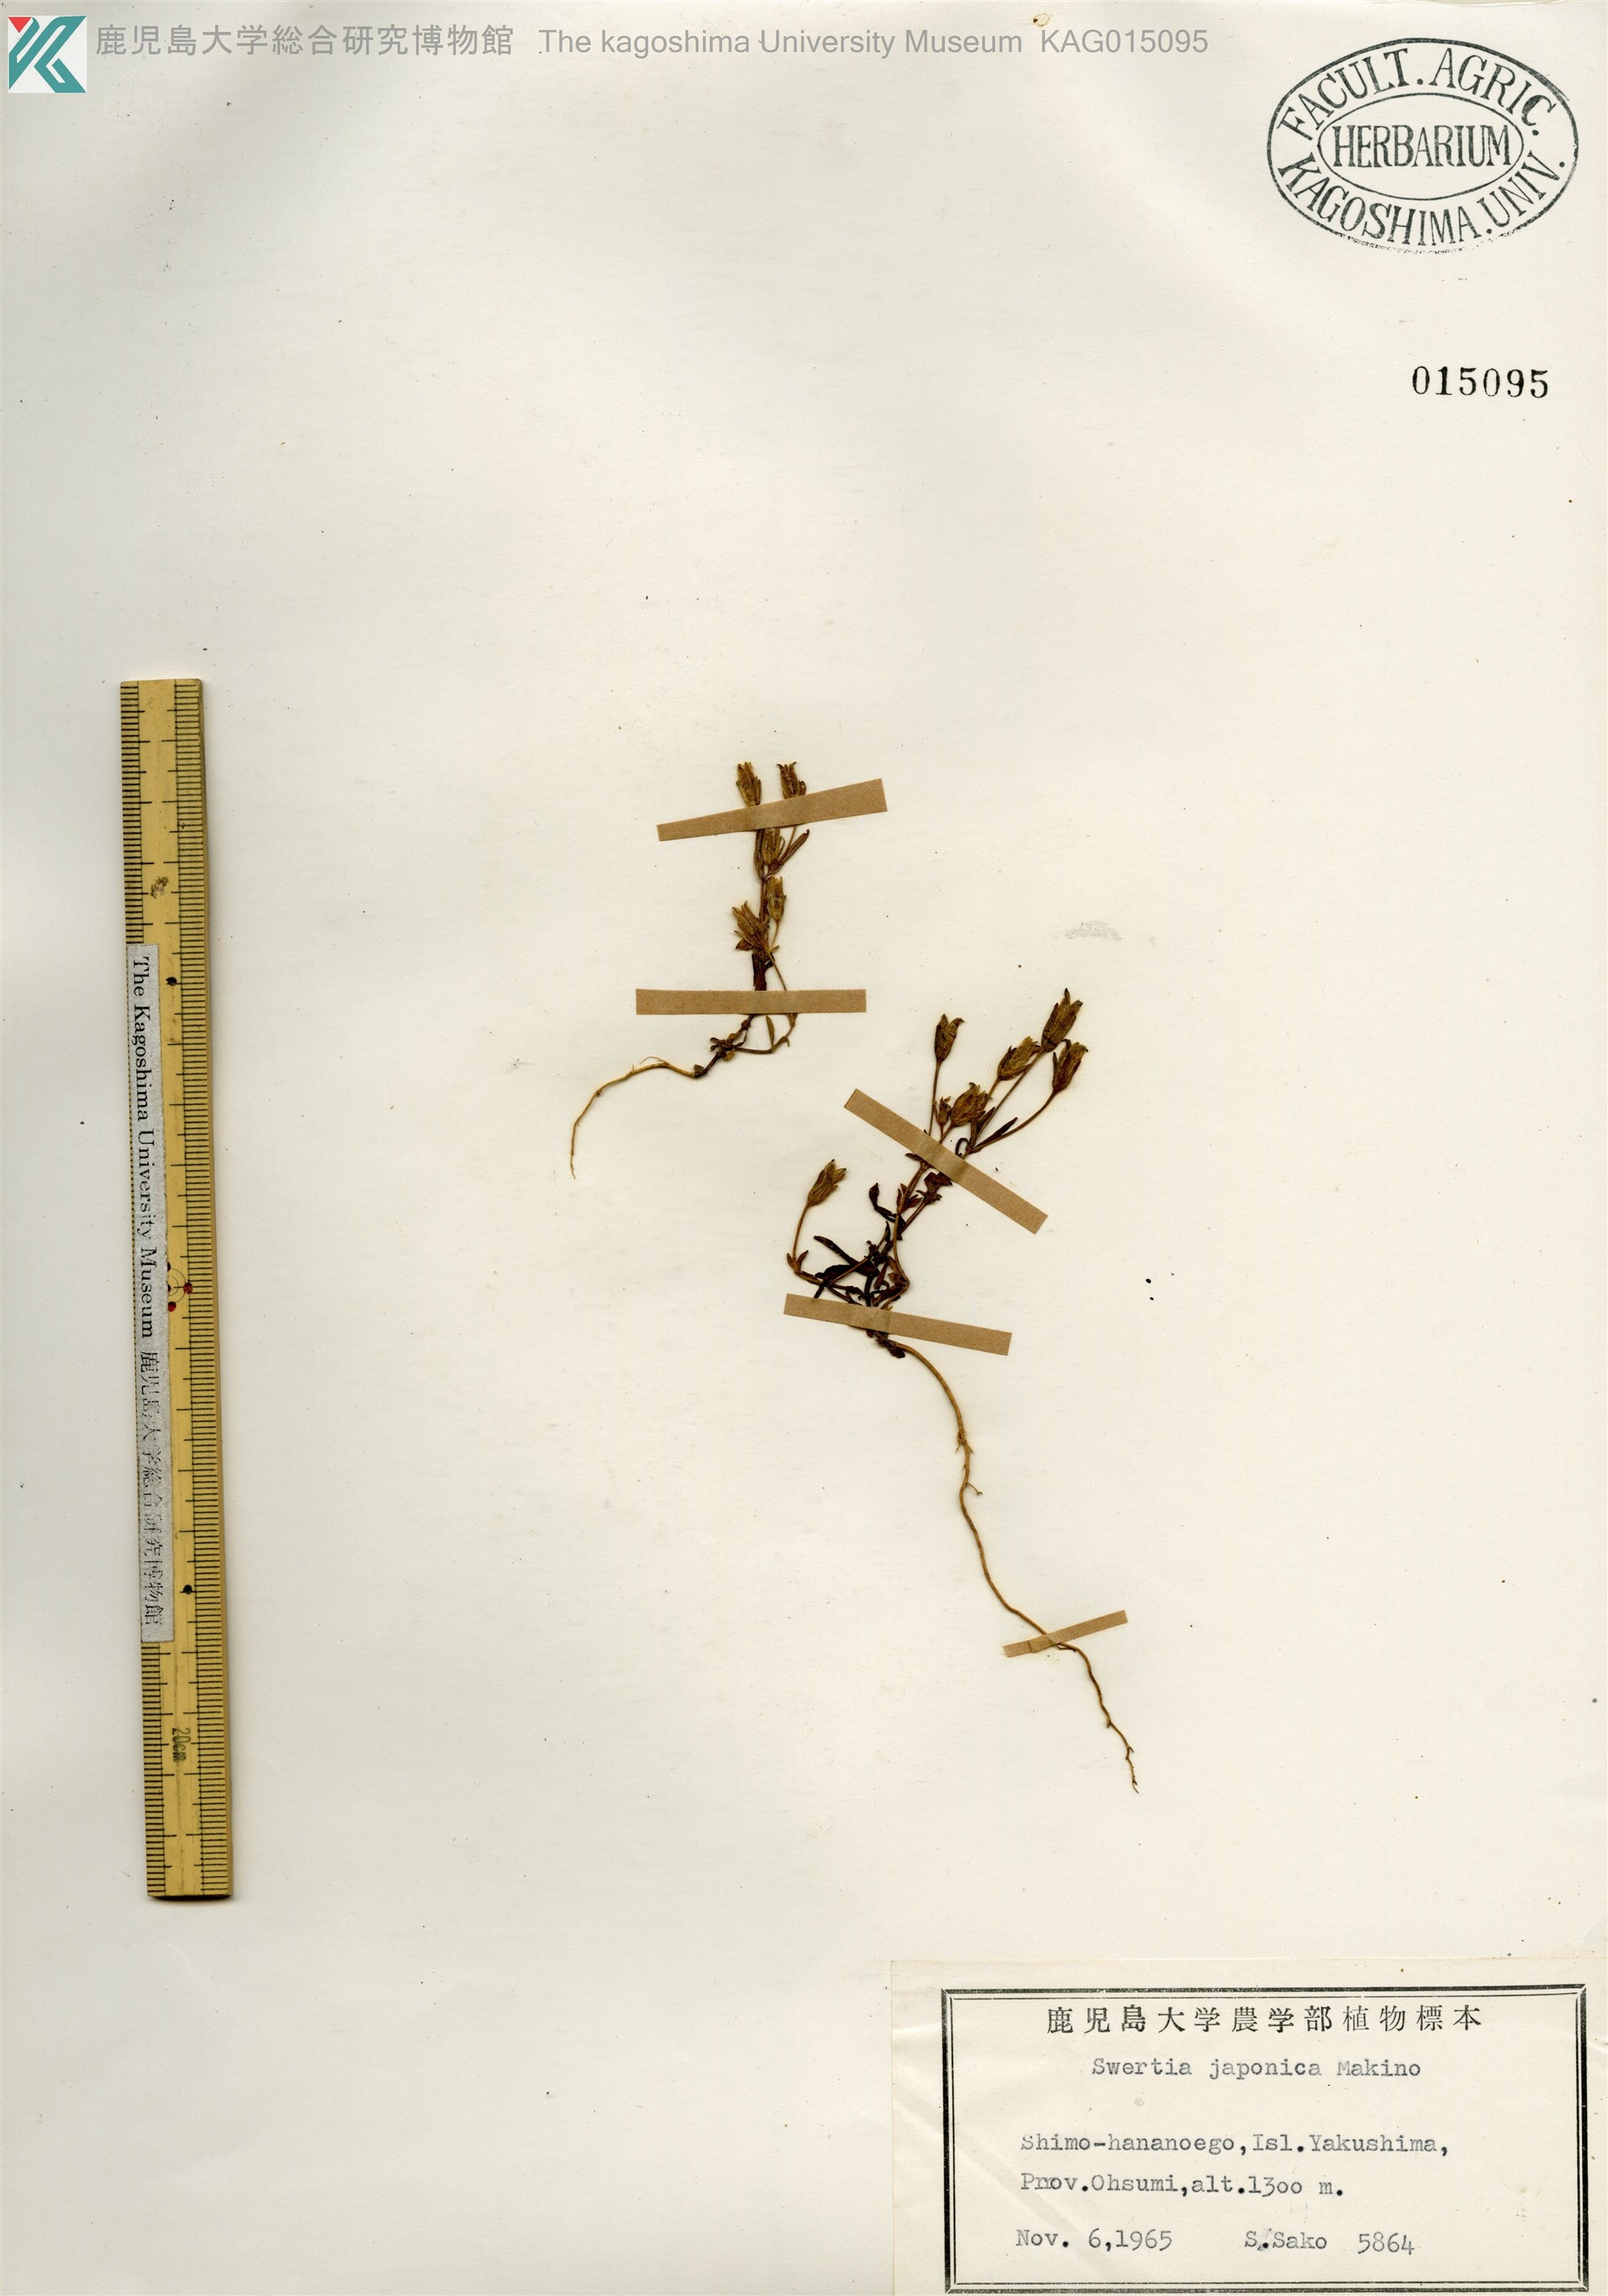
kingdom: Plantae
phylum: Tracheophyta
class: Magnoliopsida
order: Gentianales
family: Gentianaceae
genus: Swertia
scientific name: Swertia japonica
